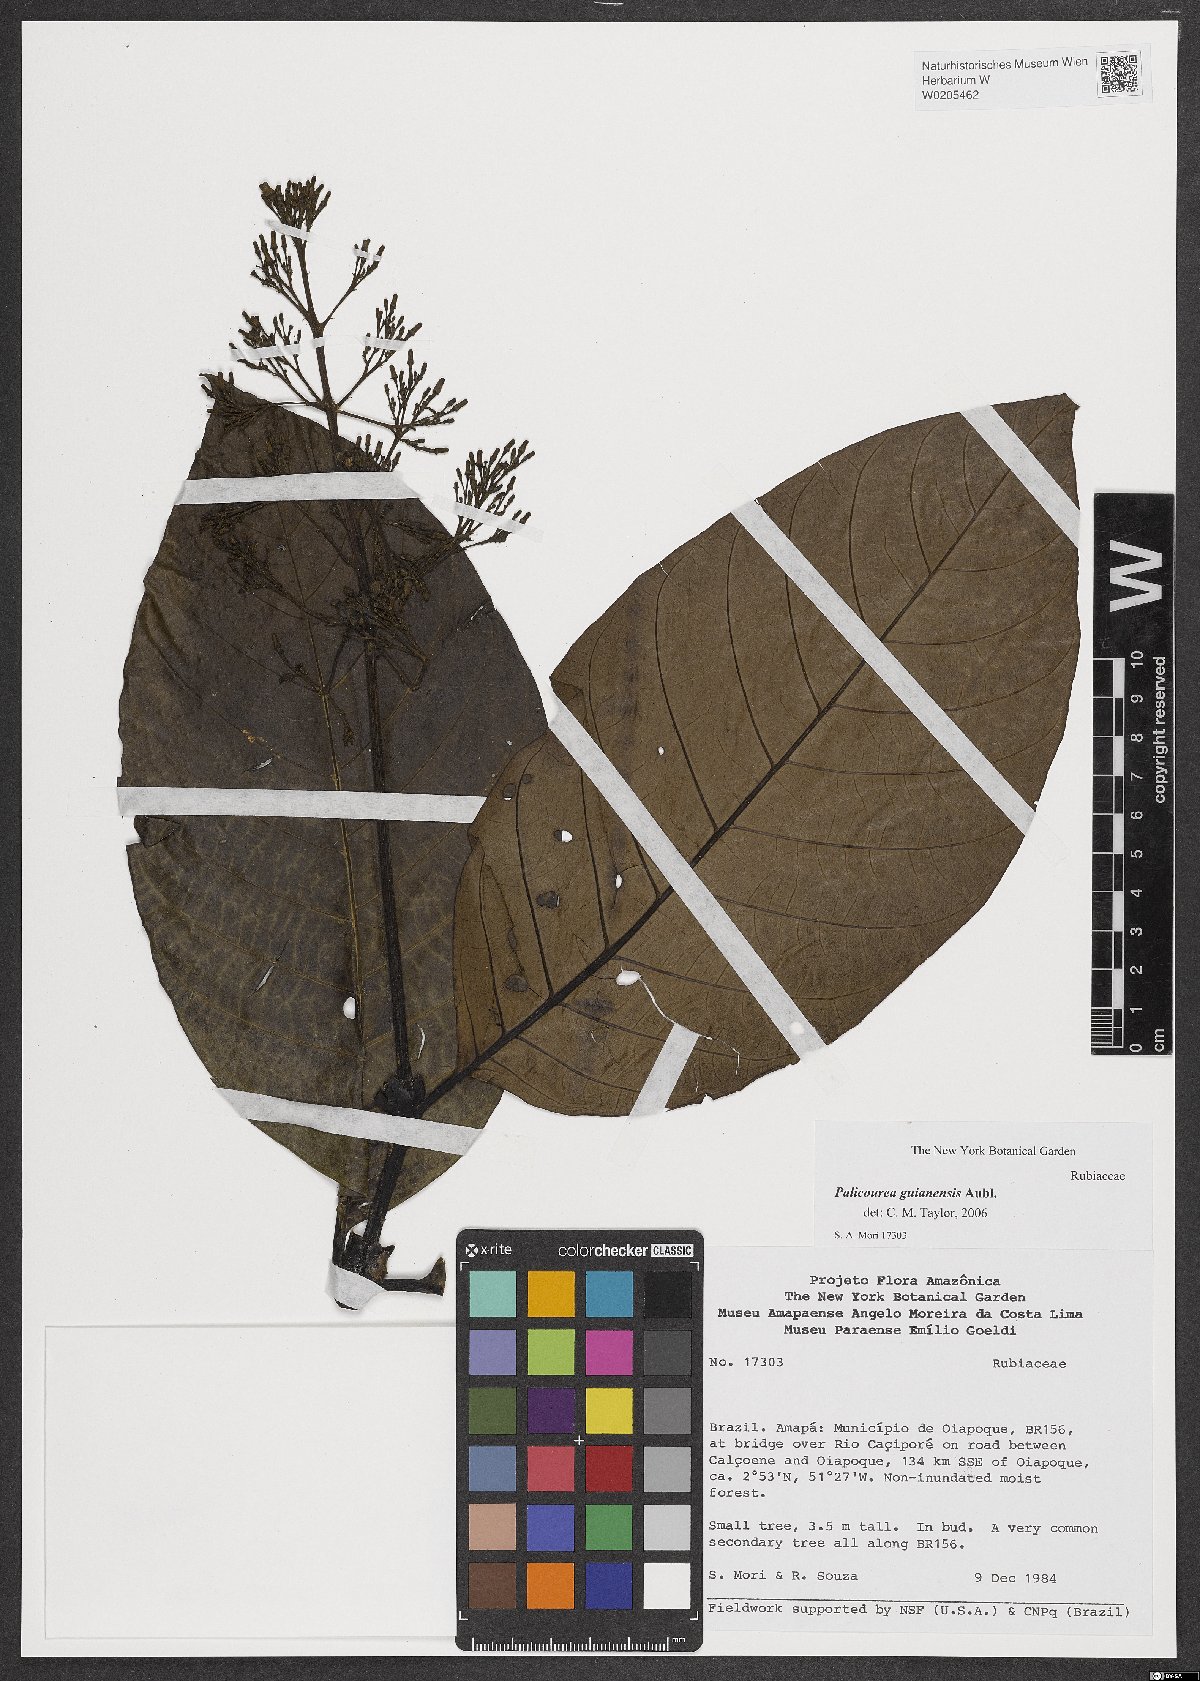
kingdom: Plantae
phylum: Tracheophyta
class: Magnoliopsida
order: Gentianales
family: Rubiaceae
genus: Palicourea
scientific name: Palicourea guianensis
